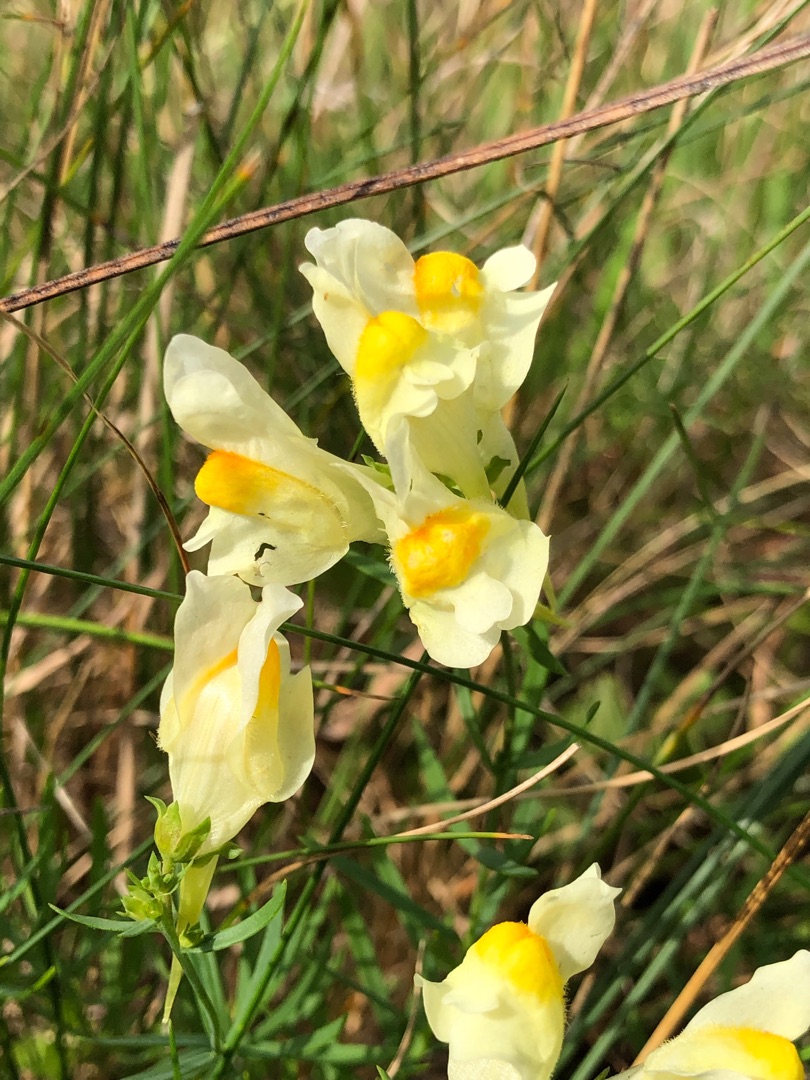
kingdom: Plantae
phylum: Tracheophyta
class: Magnoliopsida
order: Lamiales
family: Plantaginaceae
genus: Linaria
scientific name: Linaria vulgaris
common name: Almindelig torskemund
